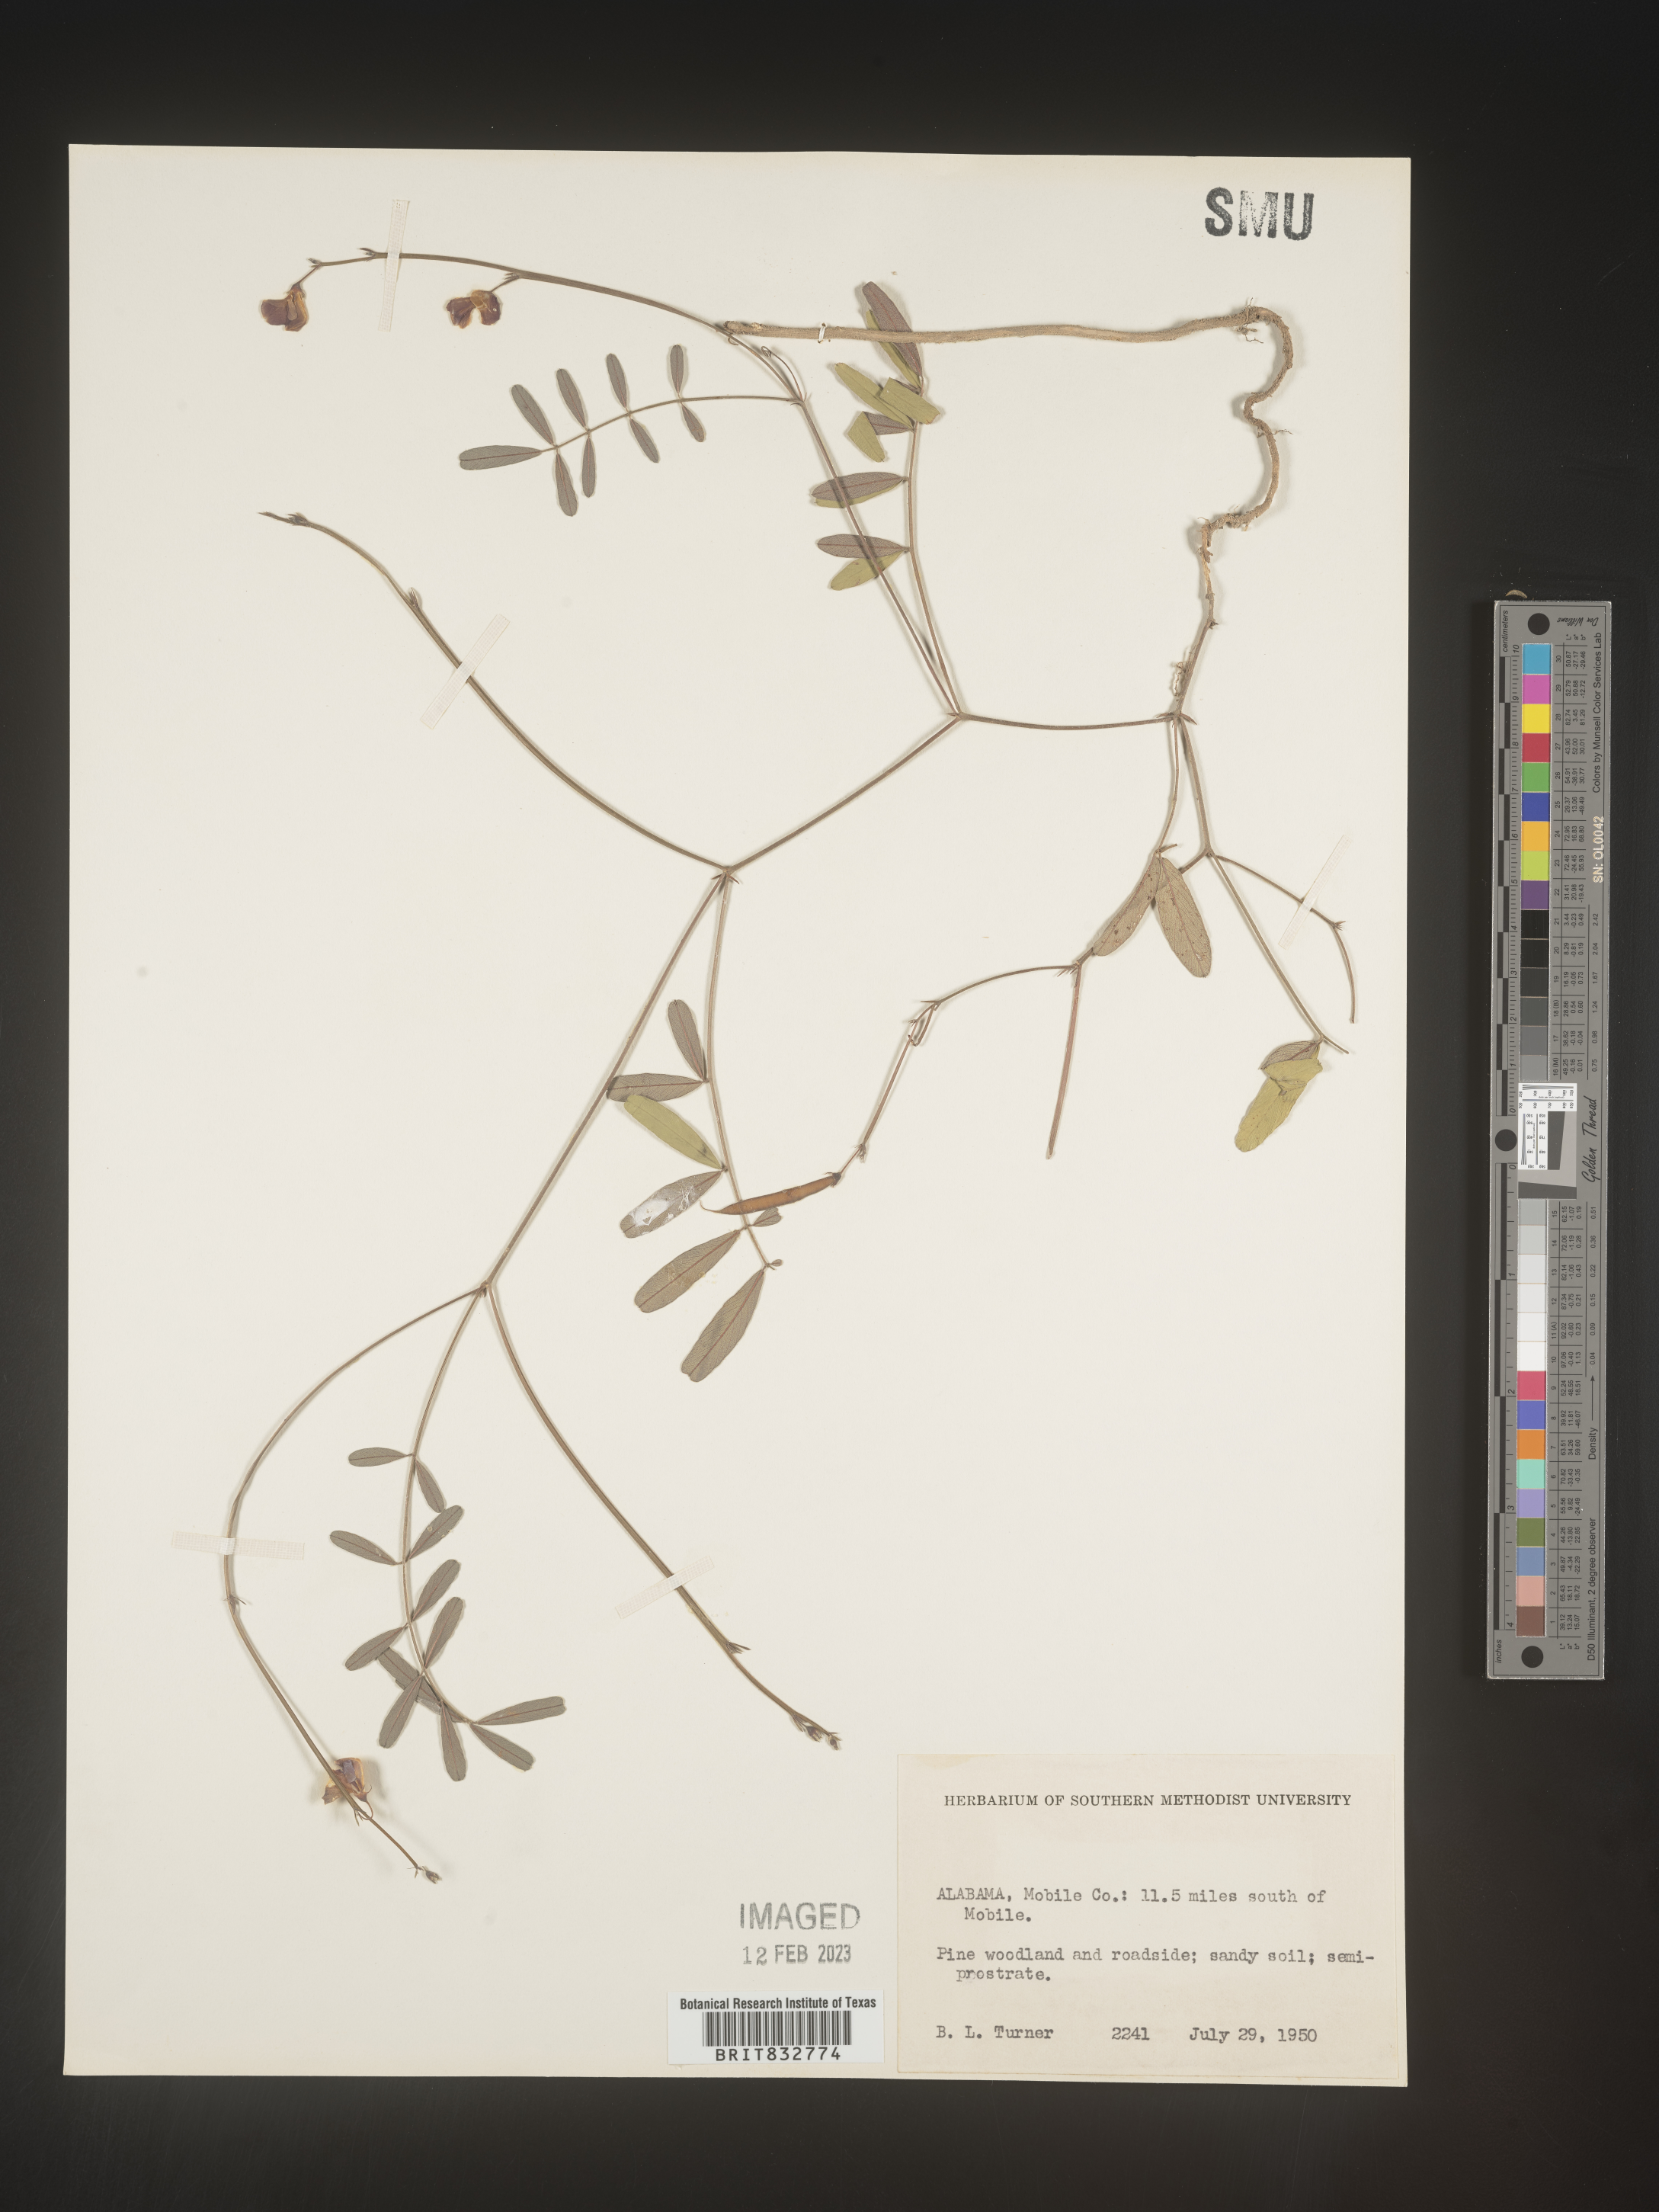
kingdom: Plantae
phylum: Tracheophyta
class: Magnoliopsida
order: Fabales
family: Fabaceae
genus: Tephrosia
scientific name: Tephrosia florida
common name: Florida hoary-pea
